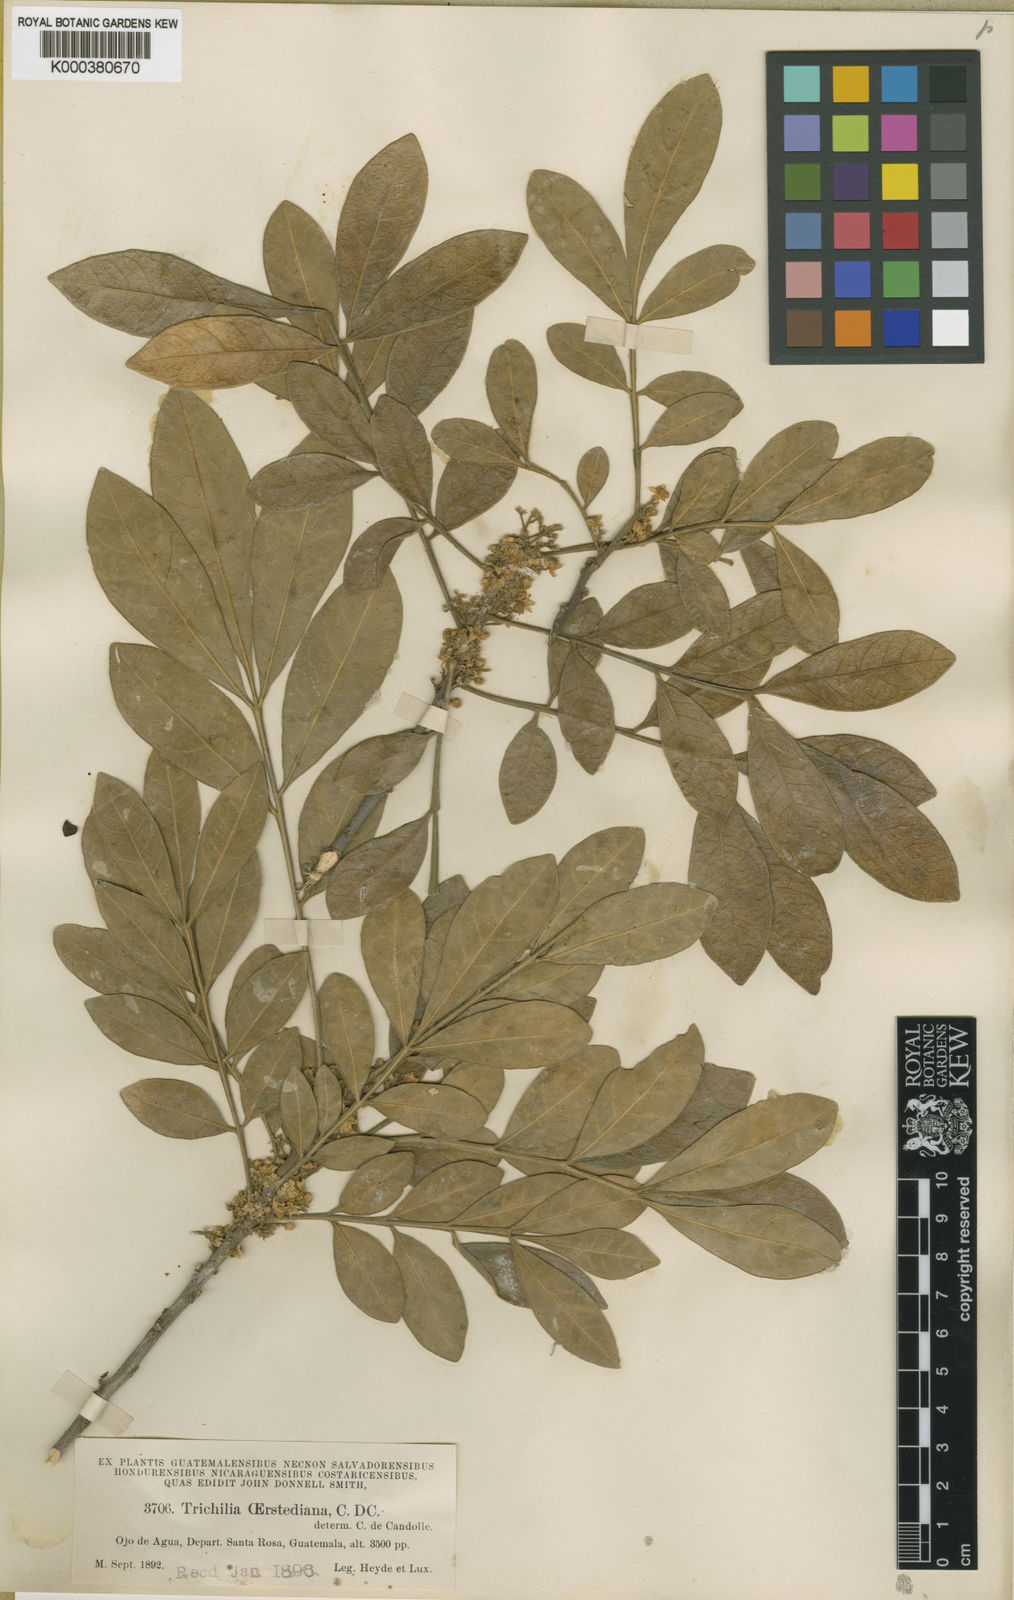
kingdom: Plantae
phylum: Tracheophyta
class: Magnoliopsida
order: Sapindales
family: Meliaceae
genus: Trichilia
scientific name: Trichilia havanensis
